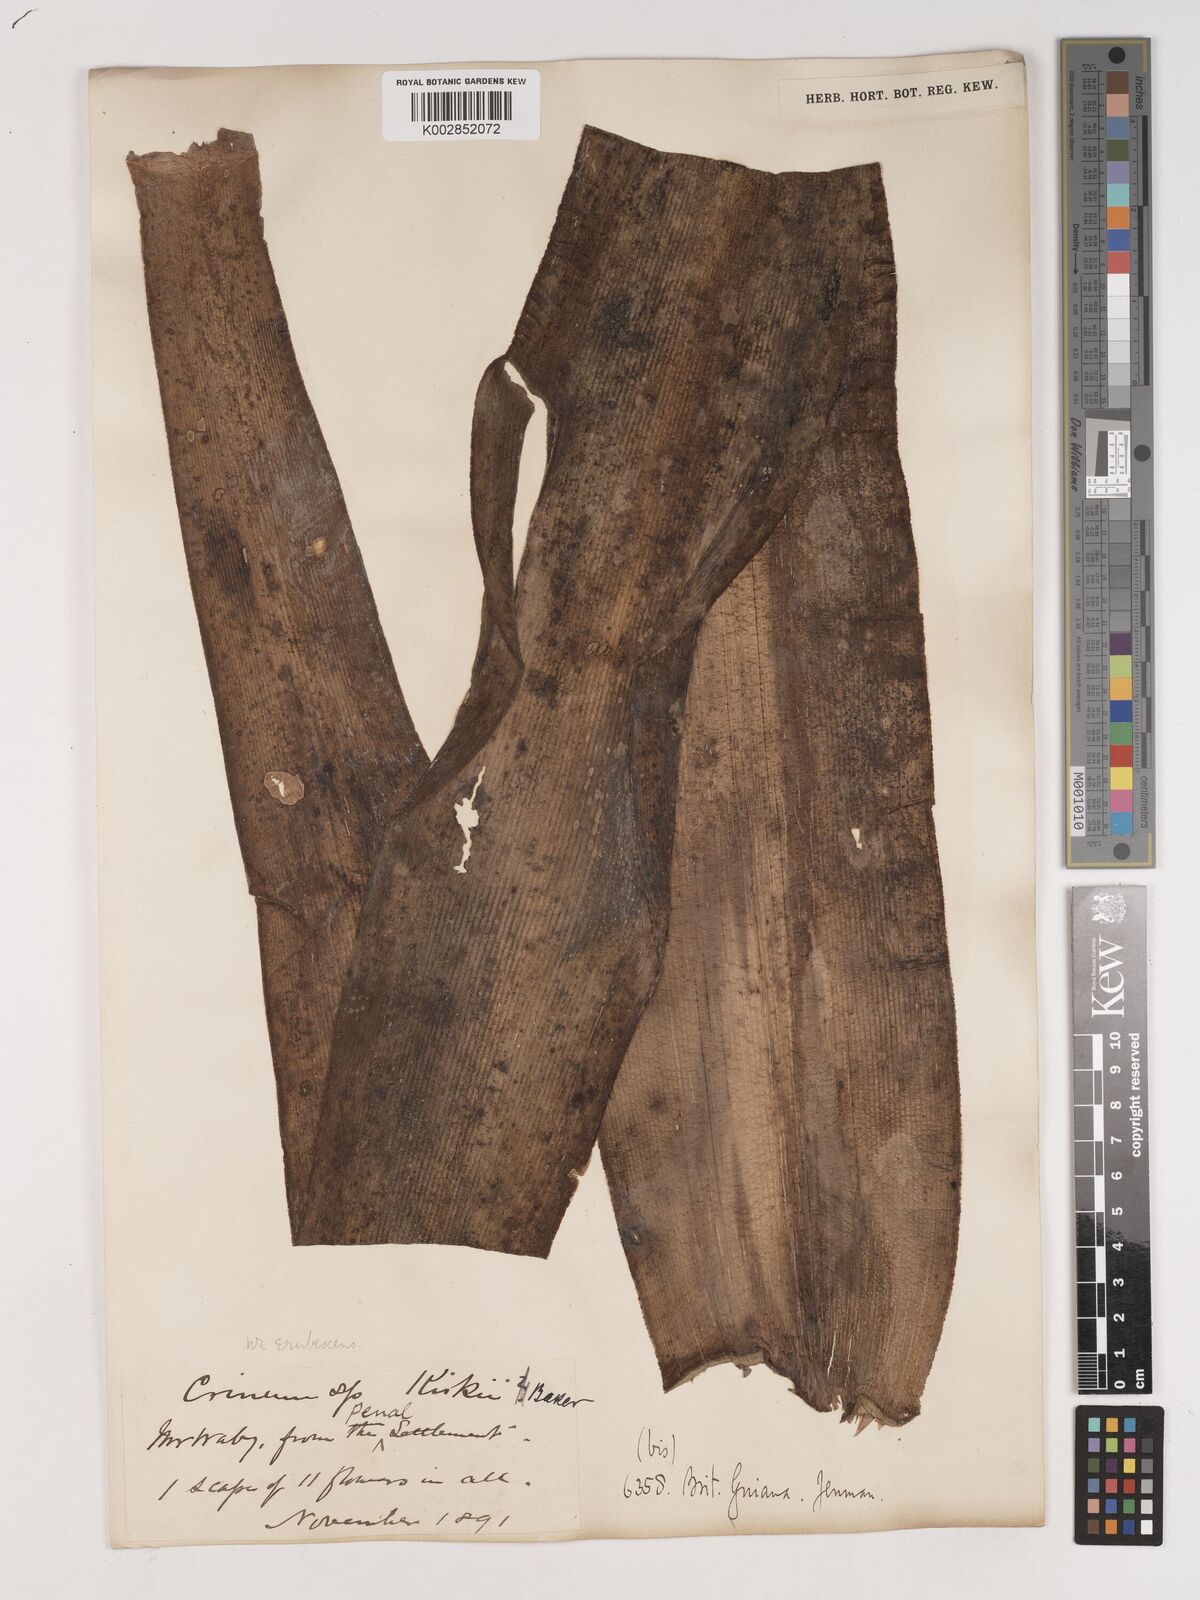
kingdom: Plantae
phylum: Tracheophyta
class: Liliopsida
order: Asparagales
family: Amaryllidaceae
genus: Crinum
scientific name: Crinum amabile
